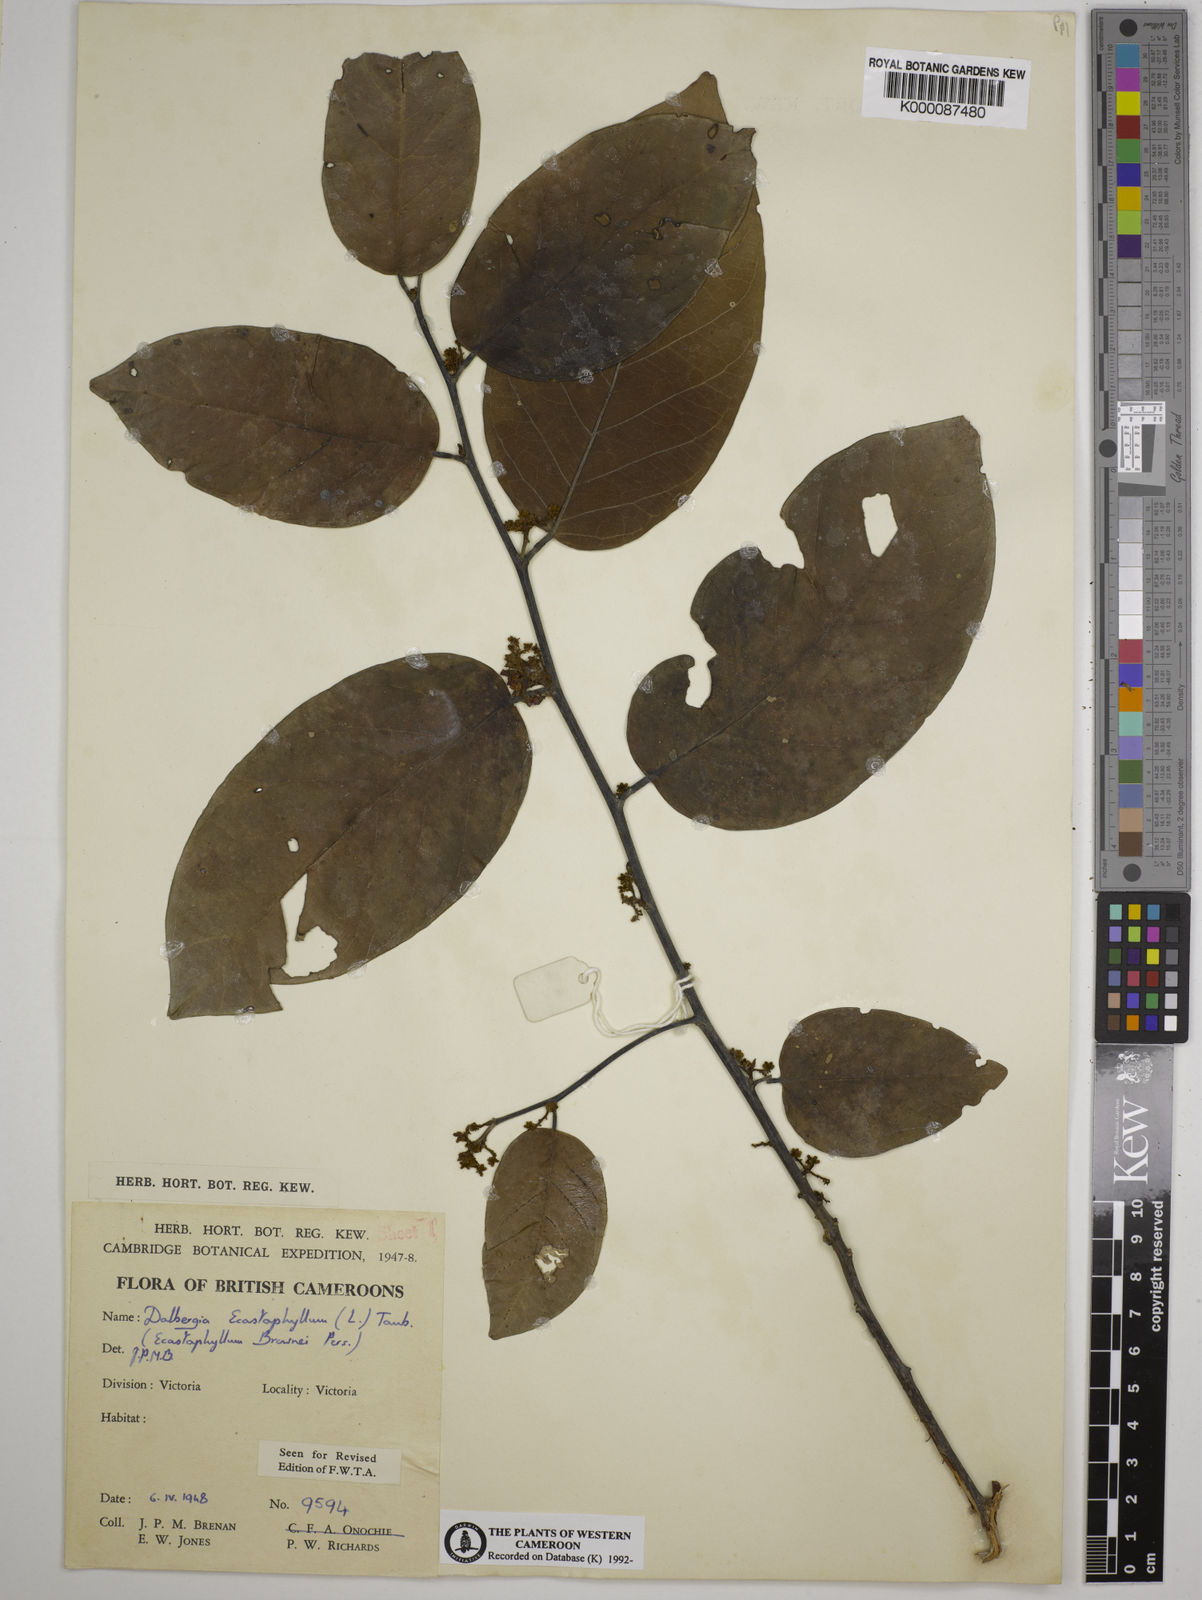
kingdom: Plantae
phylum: Tracheophyta
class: Magnoliopsida
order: Fabales
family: Fabaceae
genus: Dalbergia
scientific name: Dalbergia ecastaphyllum
